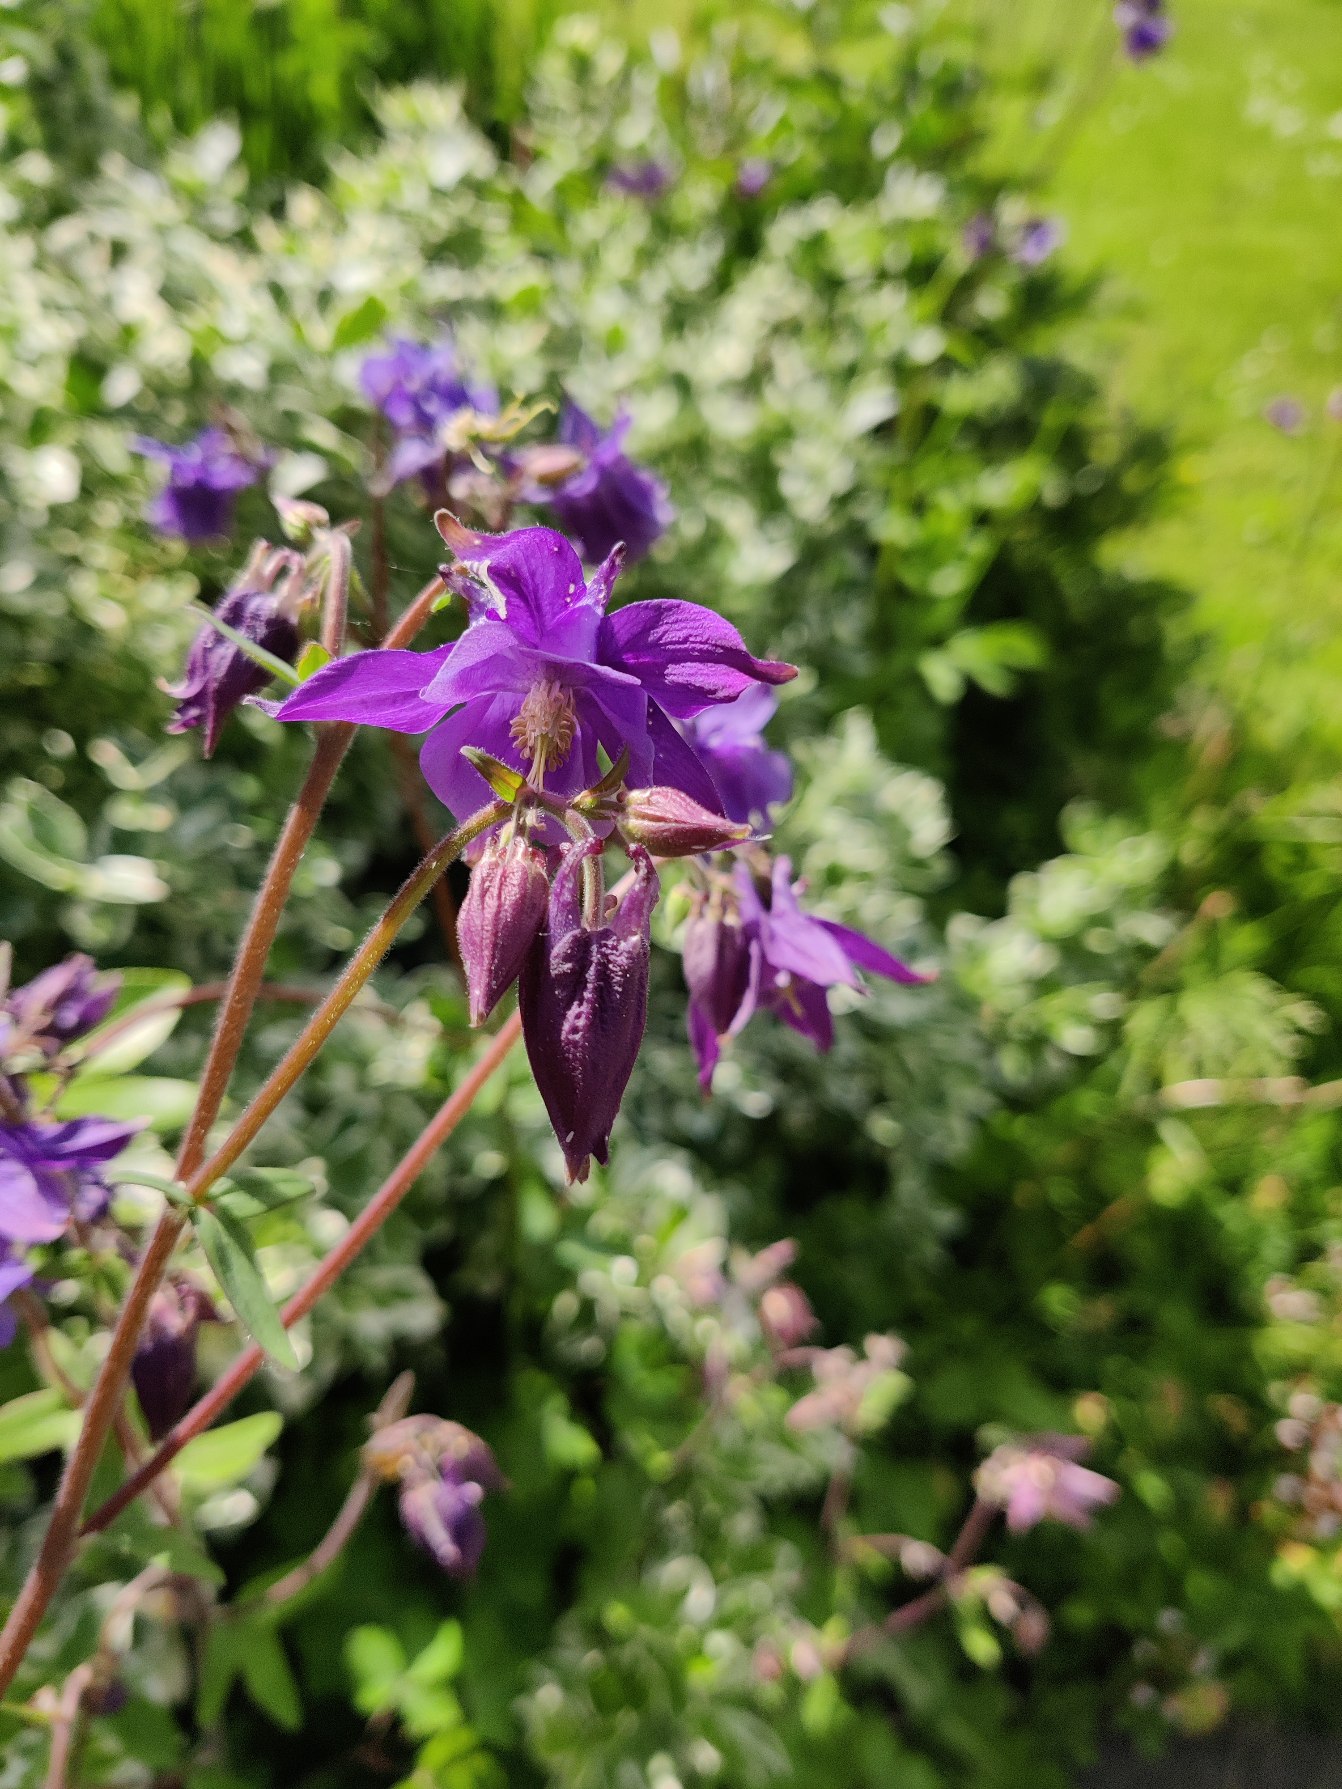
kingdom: Plantae
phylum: Tracheophyta
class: Magnoliopsida
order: Ranunculales
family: Ranunculaceae
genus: Aquilegia
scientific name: Aquilegia vulgaris
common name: Akeleje
